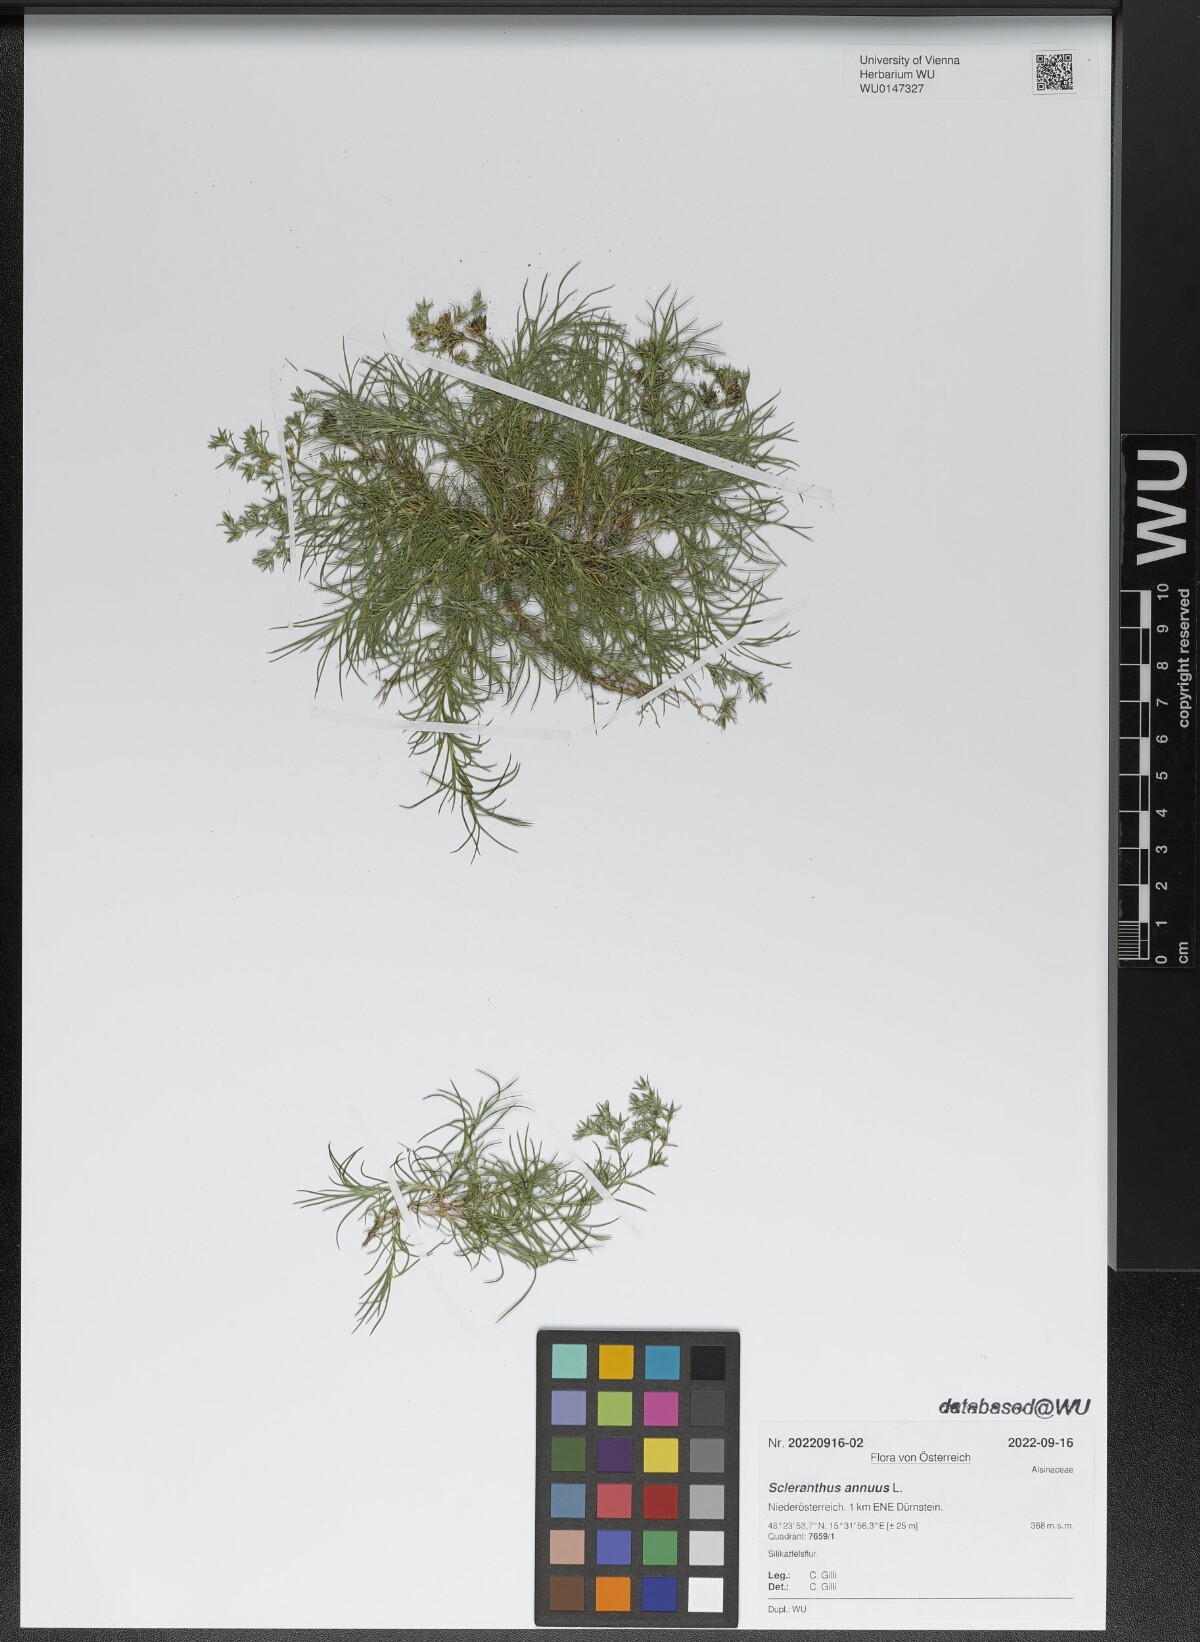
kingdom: Plantae
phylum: Tracheophyta
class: Magnoliopsida
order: Caryophyllales
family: Caryophyllaceae
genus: Scleranthus
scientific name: Scleranthus annuus
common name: Annual knawel
